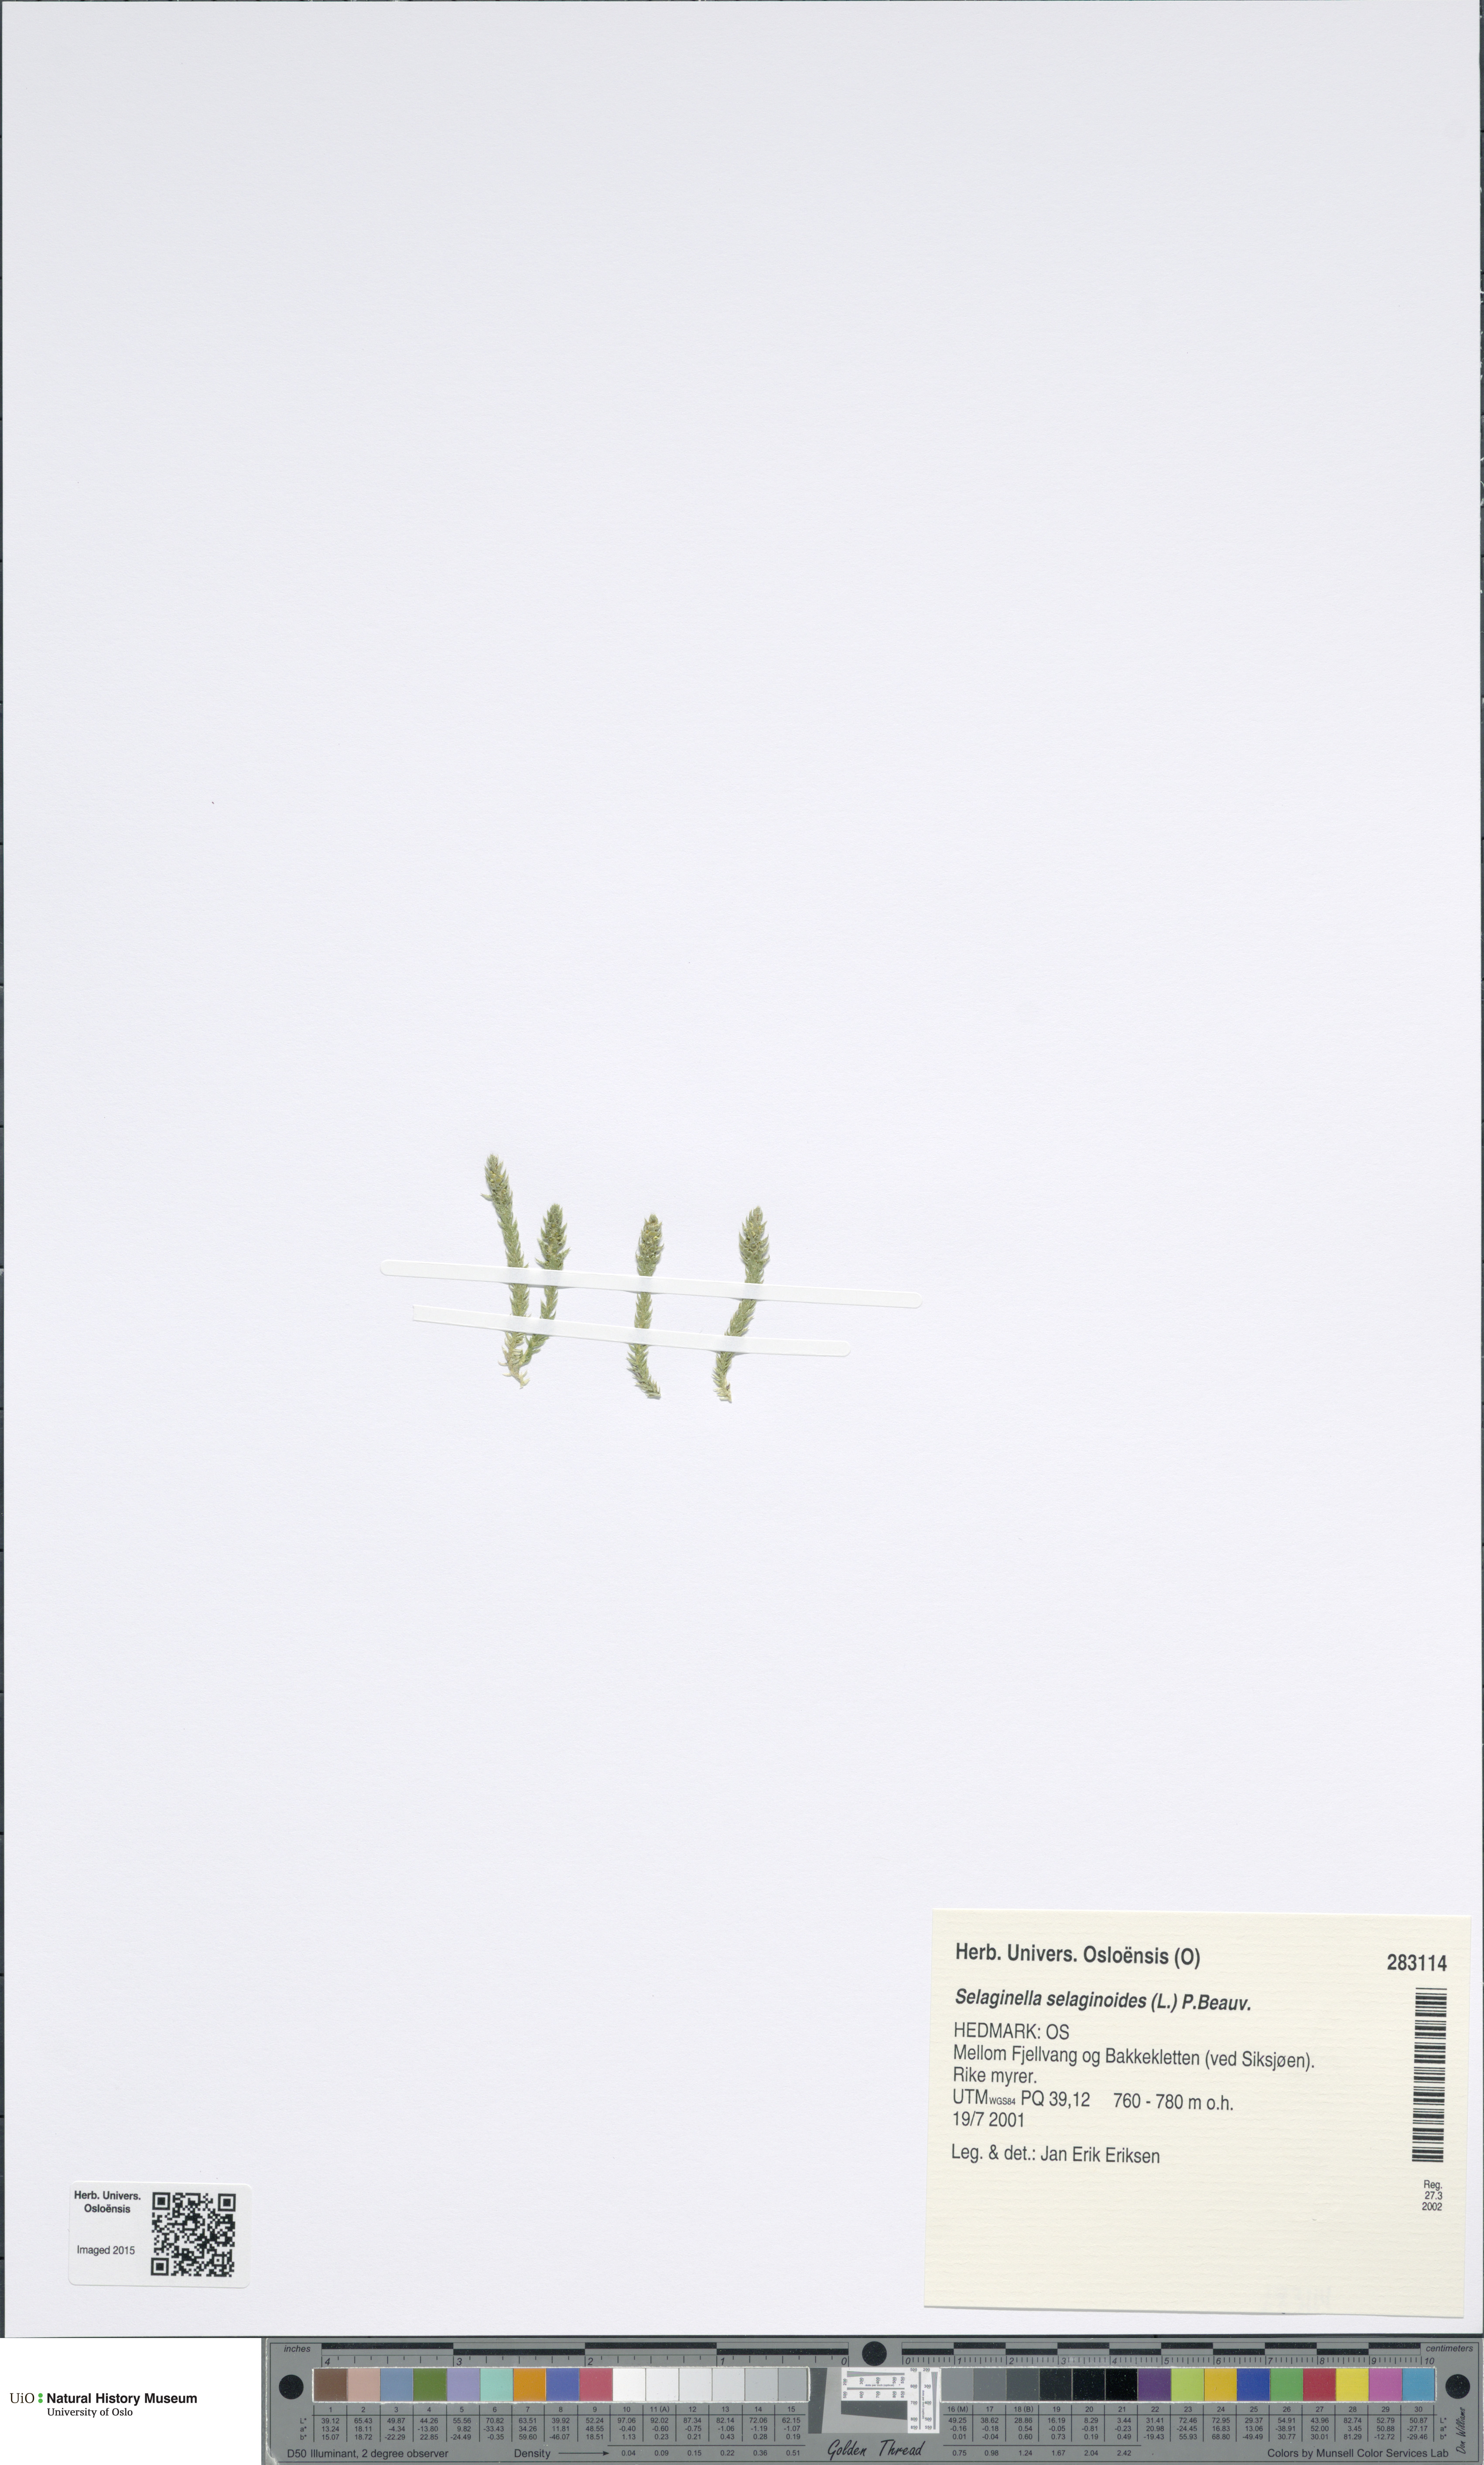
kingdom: Plantae
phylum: Tracheophyta
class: Lycopodiopsida
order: Selaginellales
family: Selaginellaceae
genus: Selaginella
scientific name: Selaginella selaginoides
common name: Prickly mountain-moss
